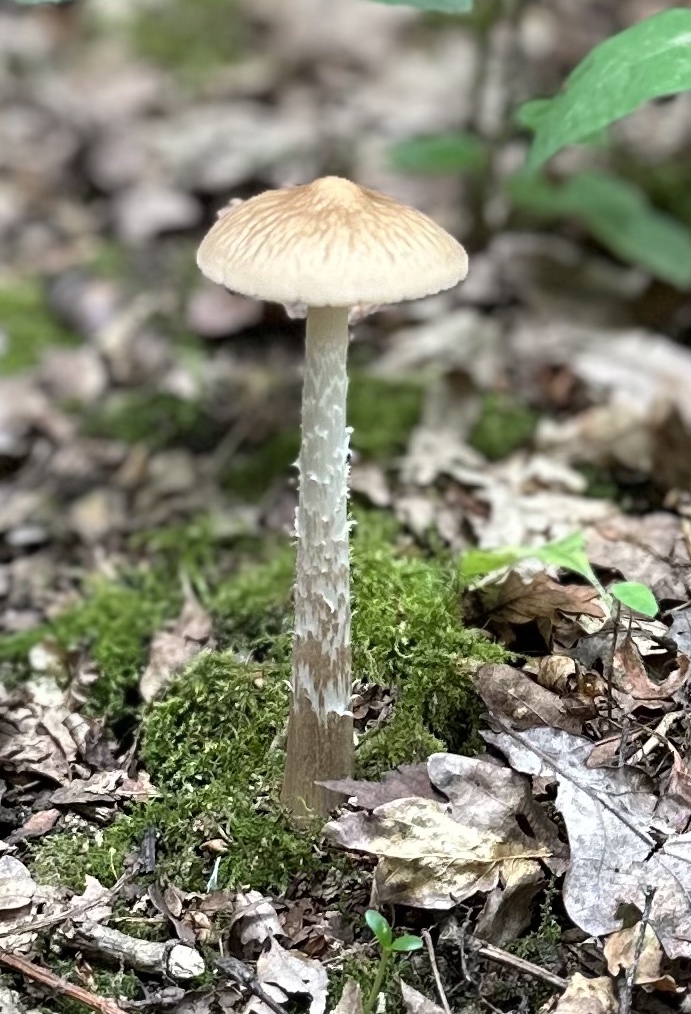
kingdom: Fungi
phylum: Basidiomycota
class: Agaricomycetes
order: Agaricales
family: Physalacriaceae
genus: Hymenopellis
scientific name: Hymenopellis radicata
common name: almindelig pælerodshat
